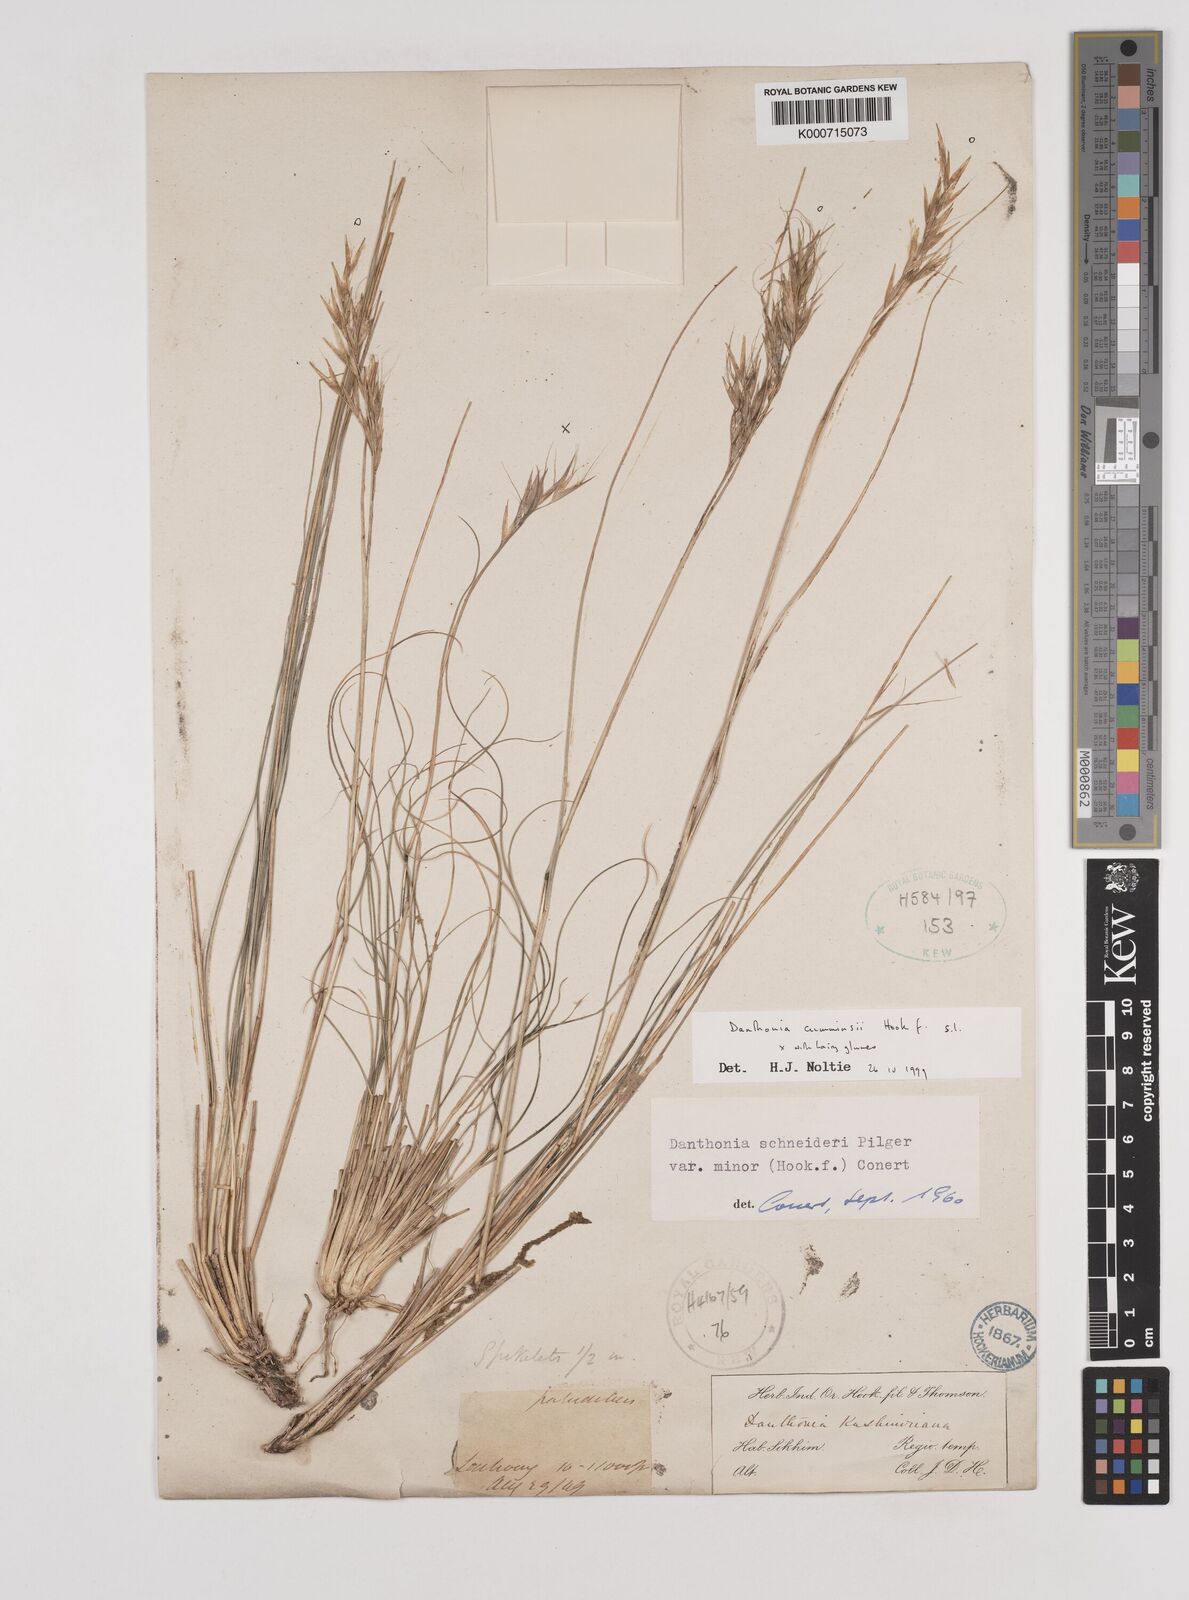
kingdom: Plantae
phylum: Tracheophyta
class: Liliopsida
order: Poales
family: Poaceae
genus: Rytidosperma
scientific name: Rytidosperma
